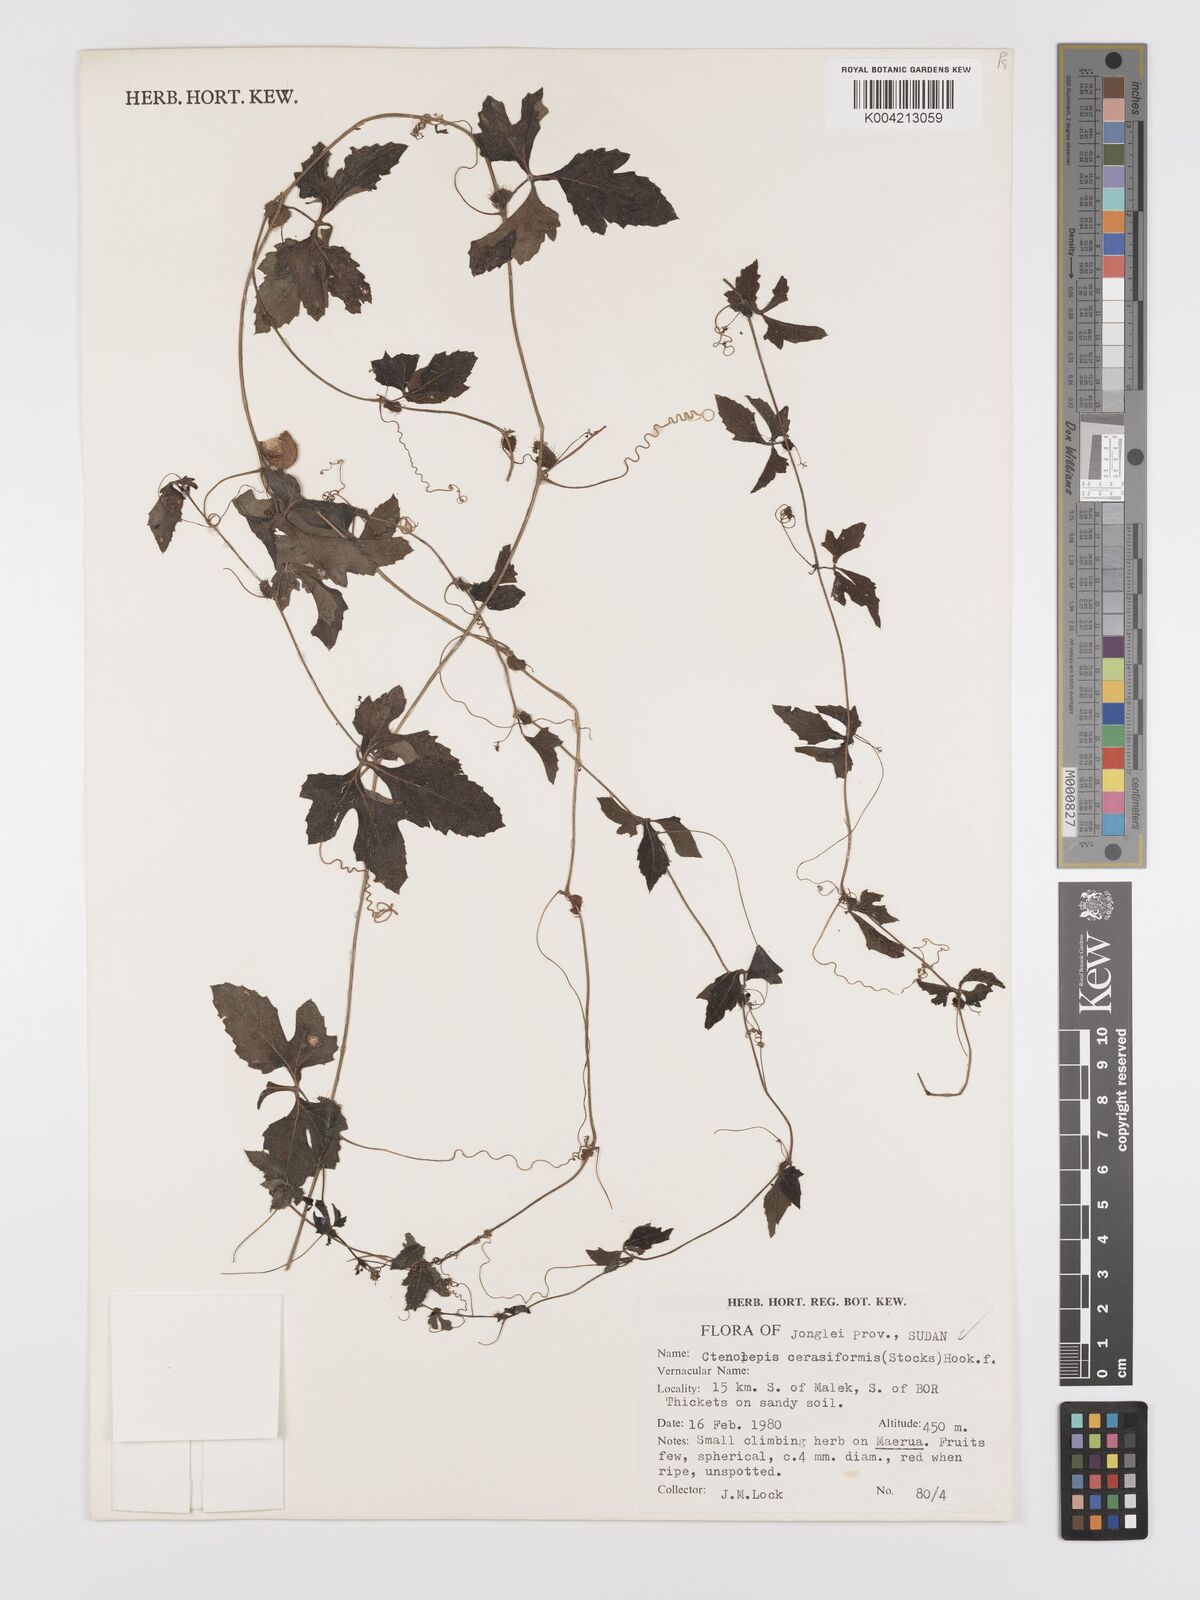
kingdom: Plantae
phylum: Tracheophyta
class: Magnoliopsida
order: Cucurbitales
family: Cucurbitaceae
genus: Blastania
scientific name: Blastania cerasiformis
